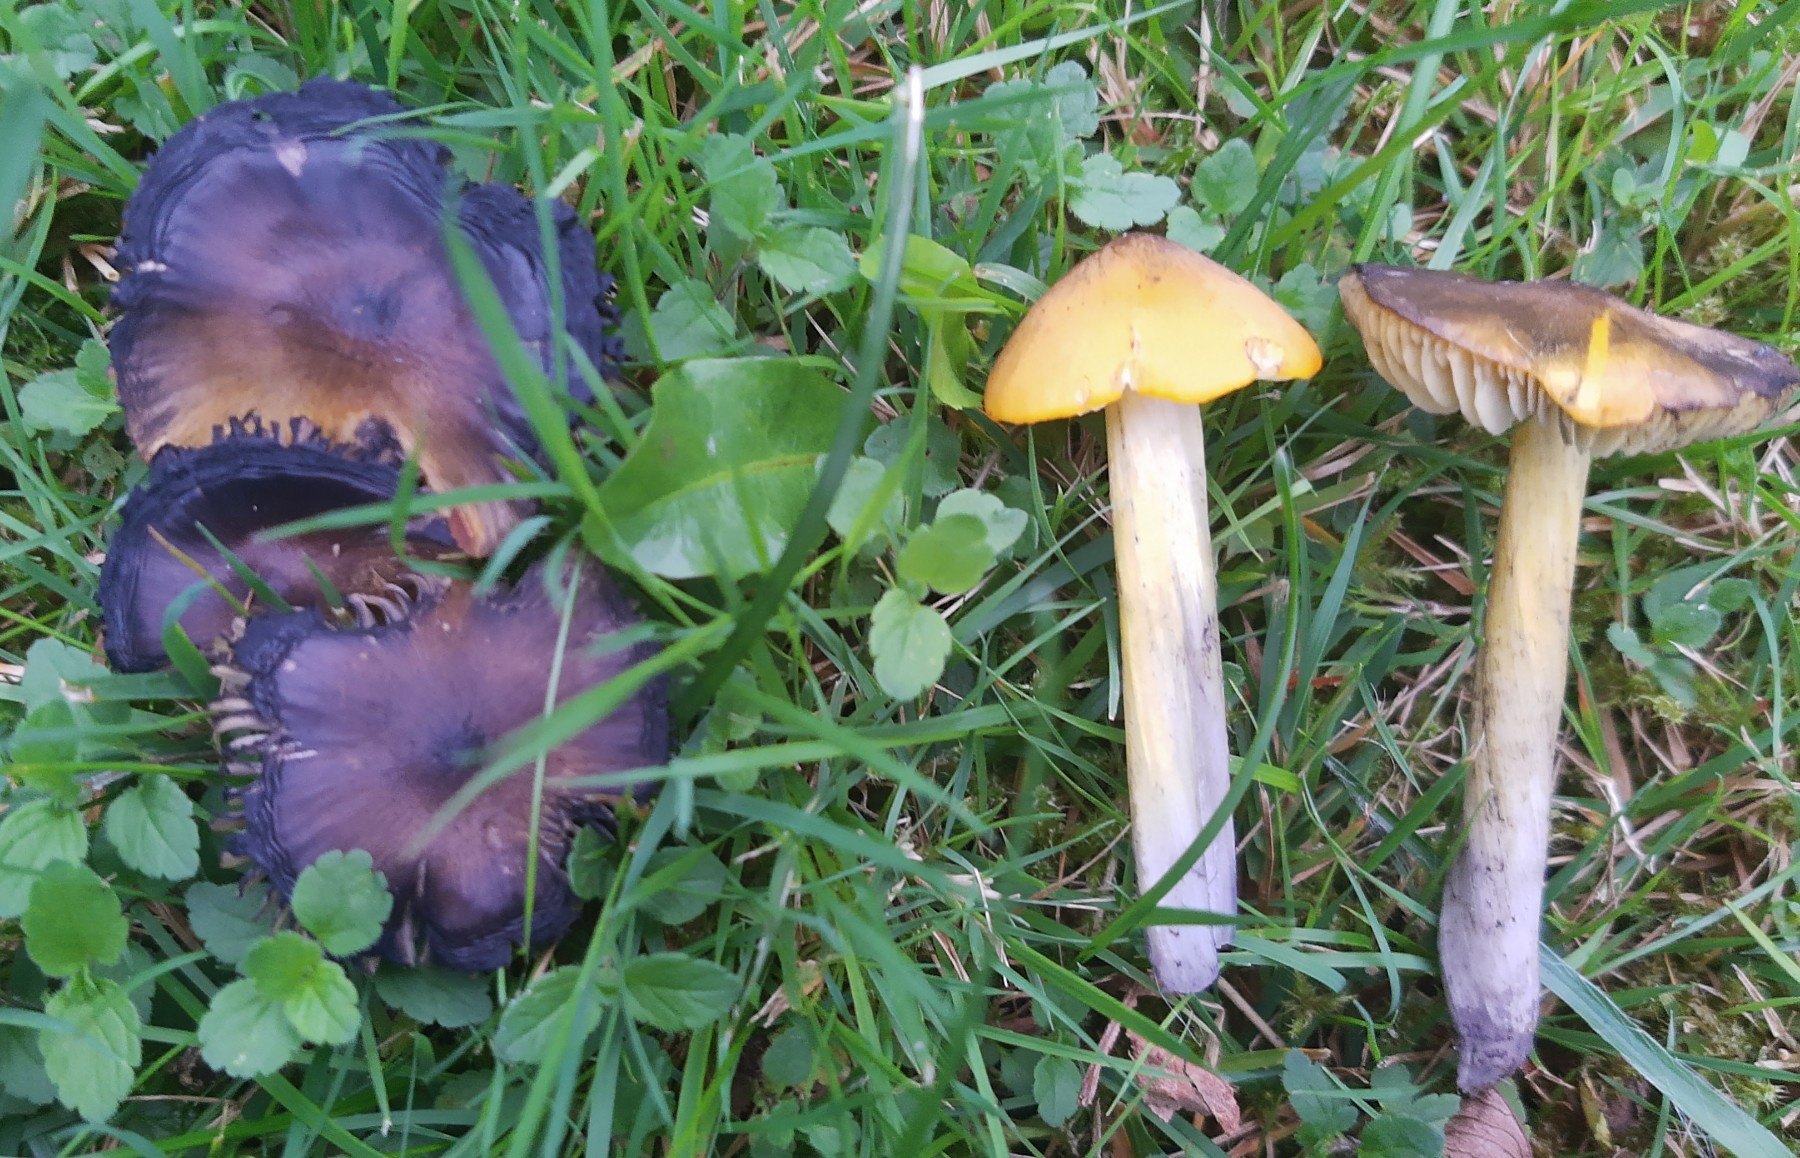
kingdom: Fungi
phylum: Basidiomycota
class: Agaricomycetes
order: Agaricales
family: Hygrophoraceae
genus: Hygrocybe
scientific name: Hygrocybe conica
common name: kegle-vokshat
